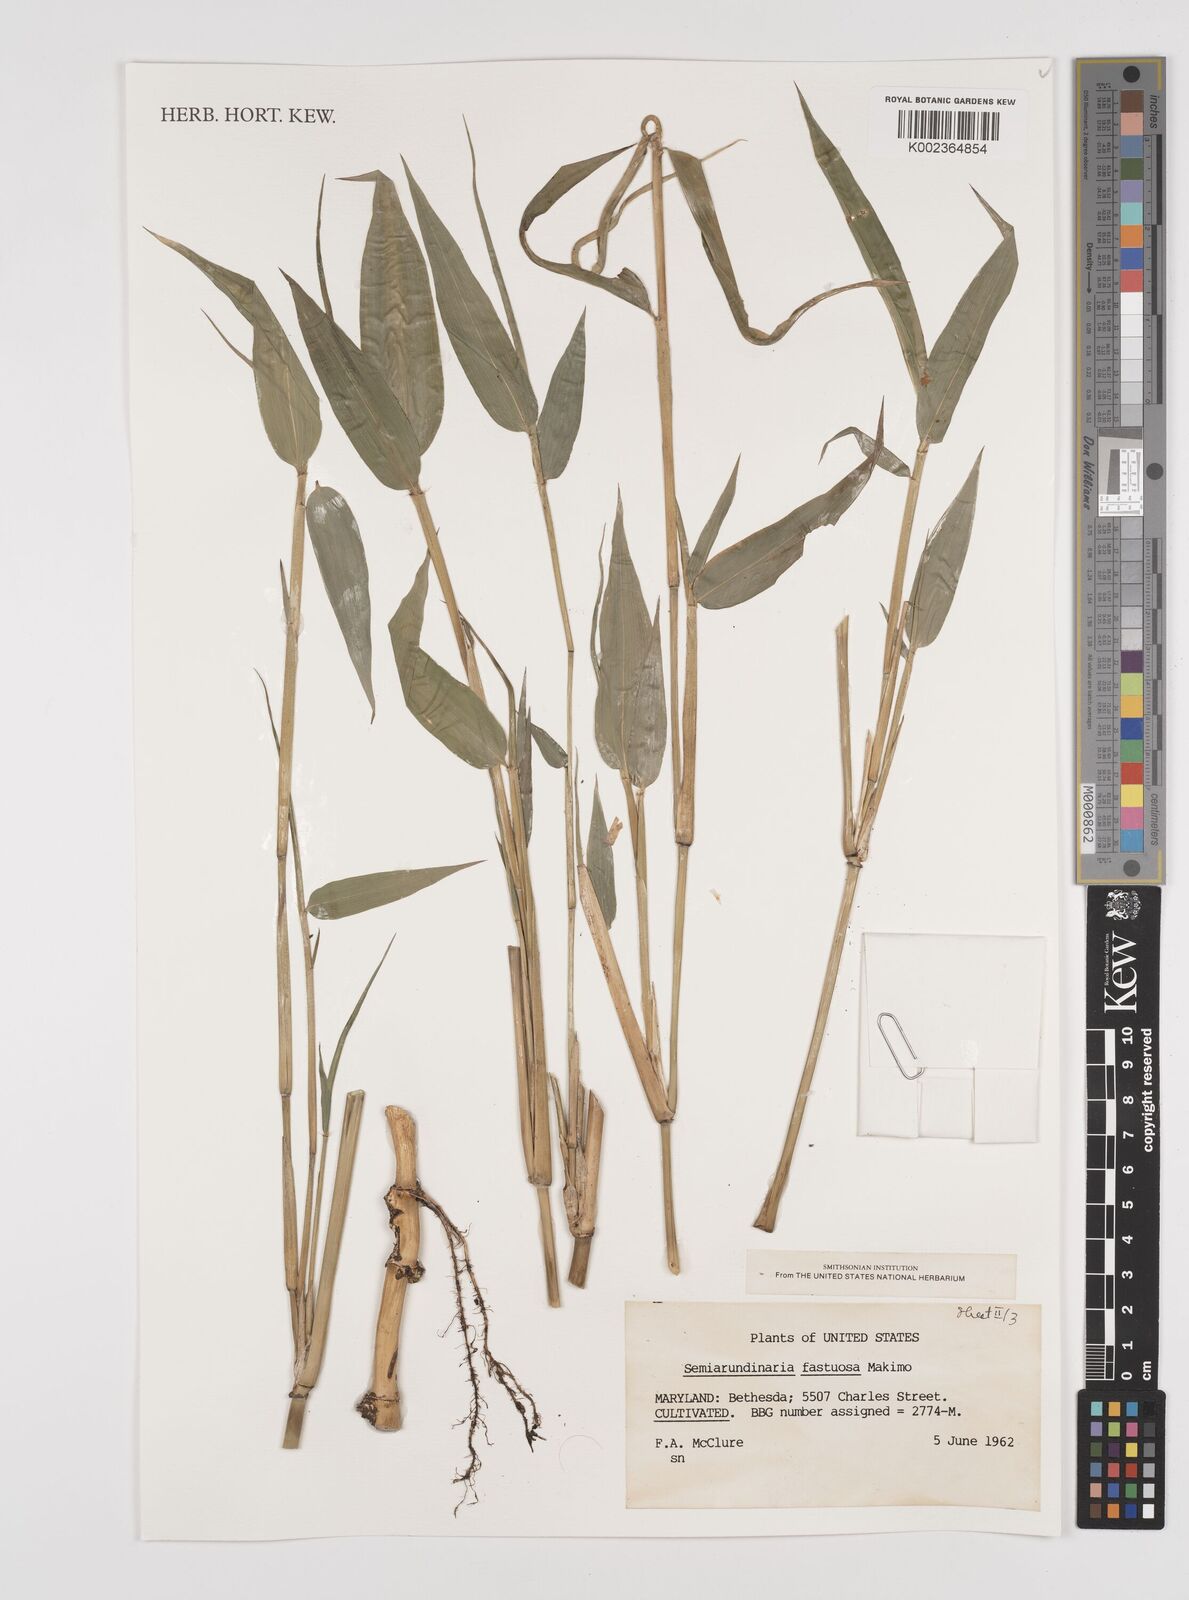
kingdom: Plantae
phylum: Tracheophyta
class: Liliopsida
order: Poales
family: Poaceae
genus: Semiarundinaria
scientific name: Semiarundinaria fastuosa
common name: Narihira bamboo
